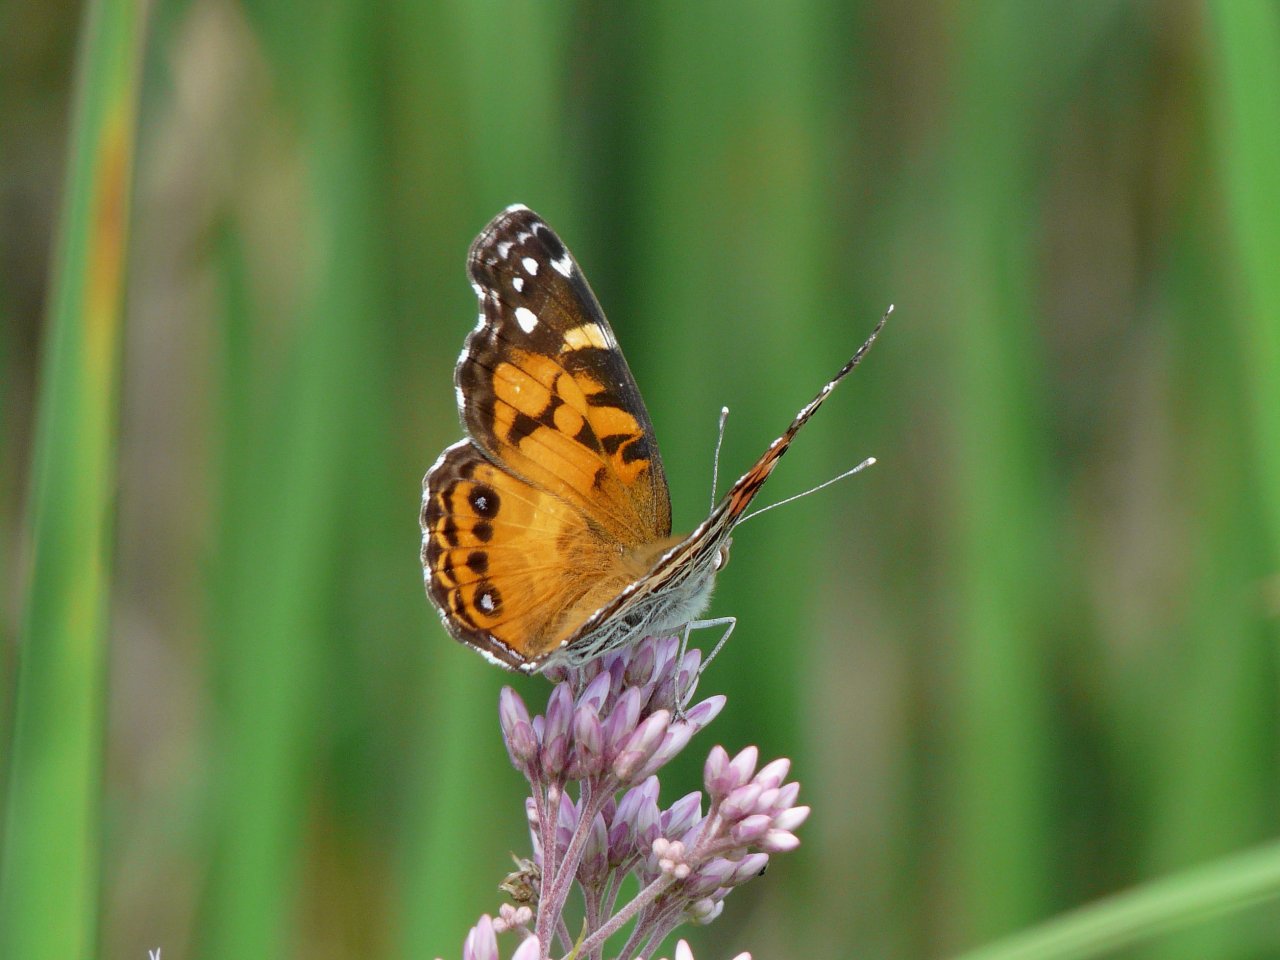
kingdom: Animalia
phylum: Arthropoda
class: Insecta
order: Lepidoptera
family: Nymphalidae
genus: Vanessa
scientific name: Vanessa virginiensis
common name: American Lady
